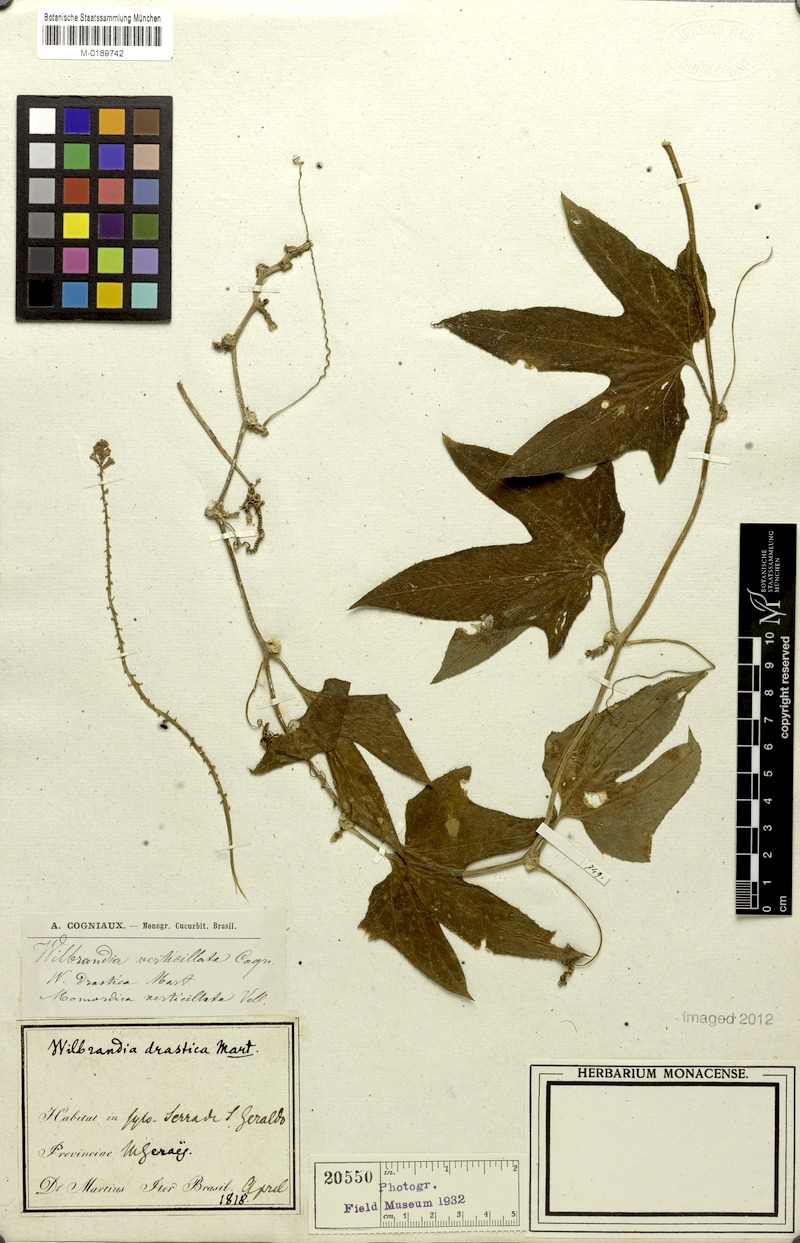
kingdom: Plantae
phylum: Tracheophyta
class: Magnoliopsida
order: Cucurbitales
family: Cucurbitaceae
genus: Wilbrandia
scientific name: Wilbrandia verticillata
